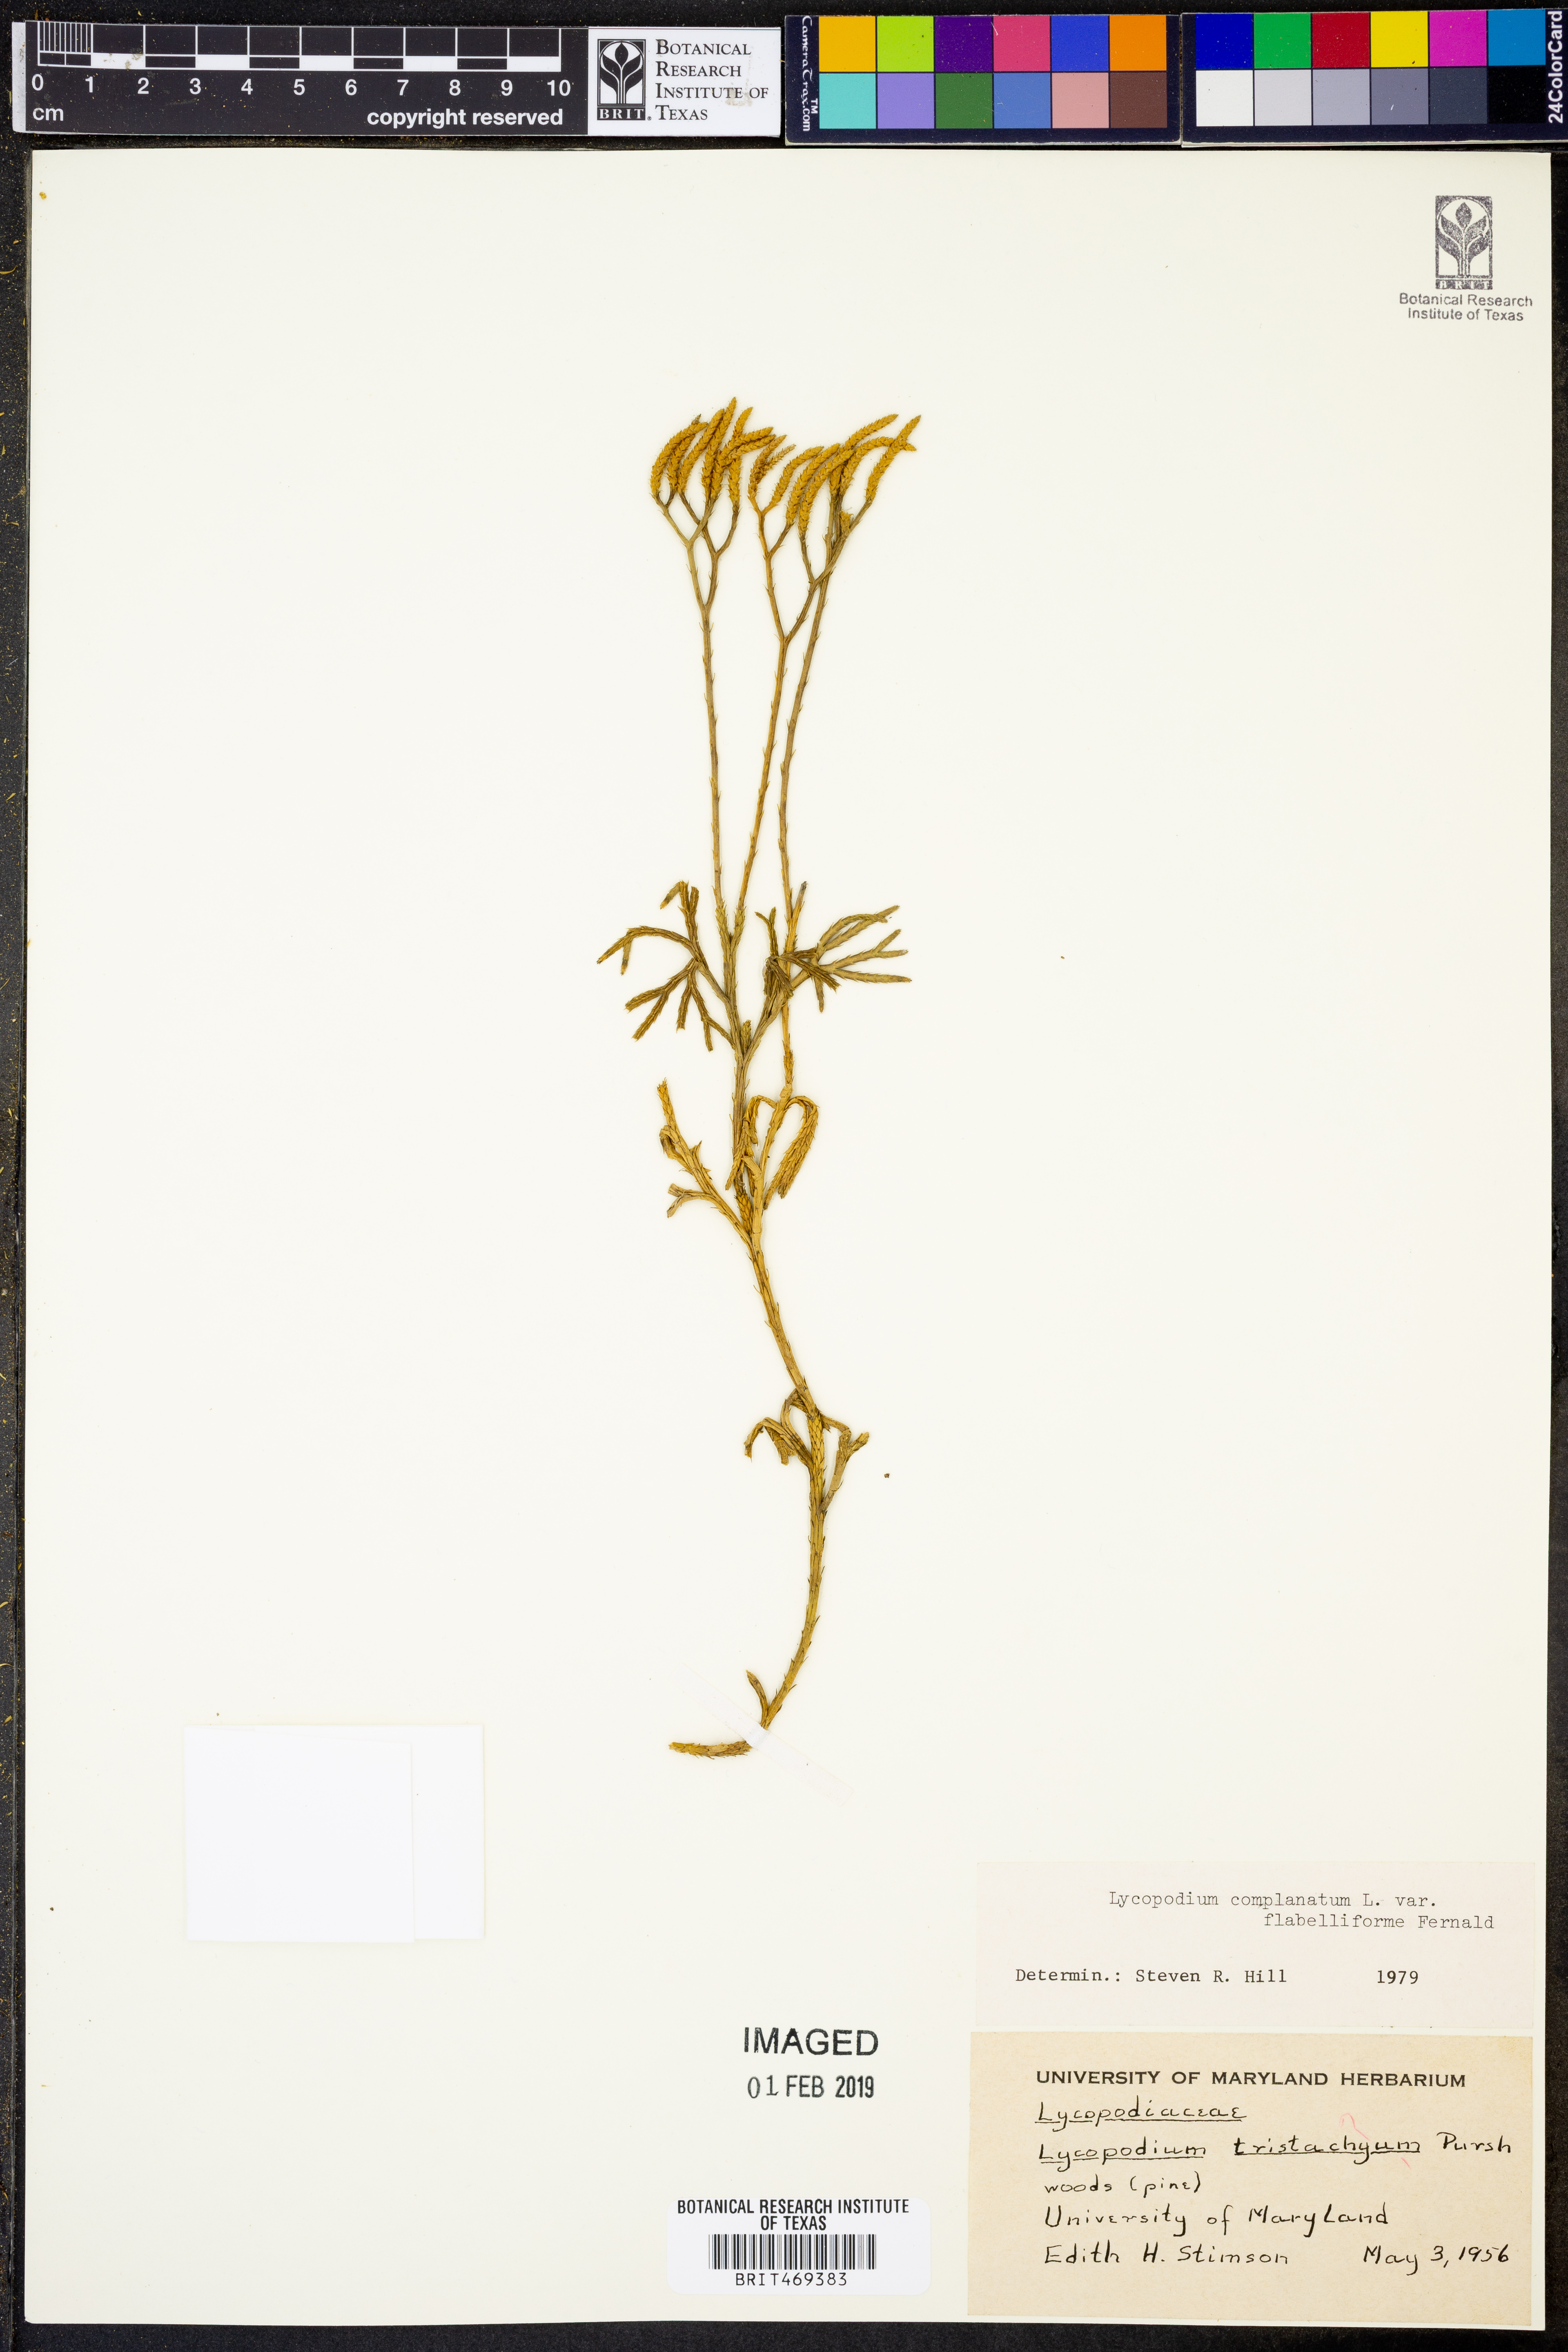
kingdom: Plantae
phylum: Tracheophyta
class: Lycopodiopsida
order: Lycopodiales
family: Lycopodiaceae
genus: Diphasiastrum
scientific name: Diphasiastrum digitatum
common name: Southern running-pine
